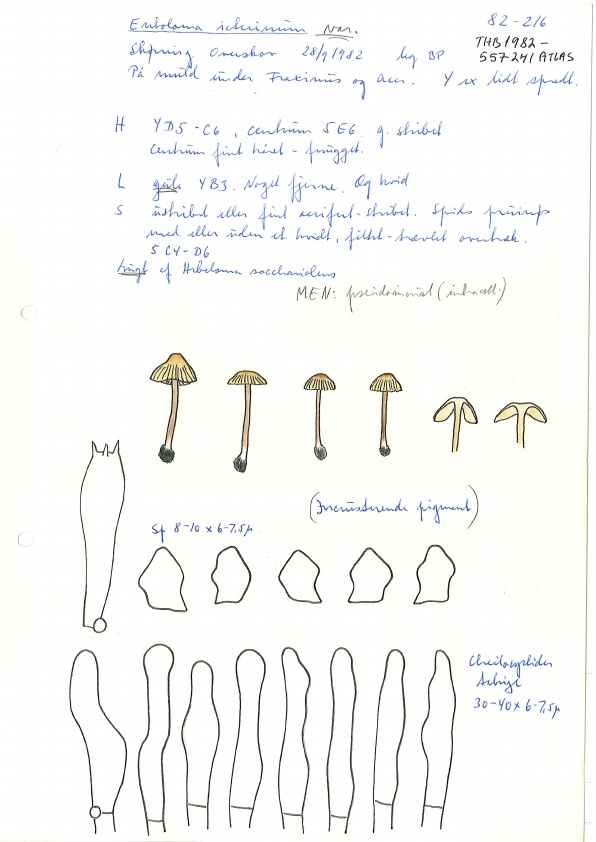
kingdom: Fungi
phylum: Basidiomycota
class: Agaricomycetes
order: Agaricales
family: Entolomataceae
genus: Entoloma
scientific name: Entoloma pleopodium
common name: duftende rødblad
